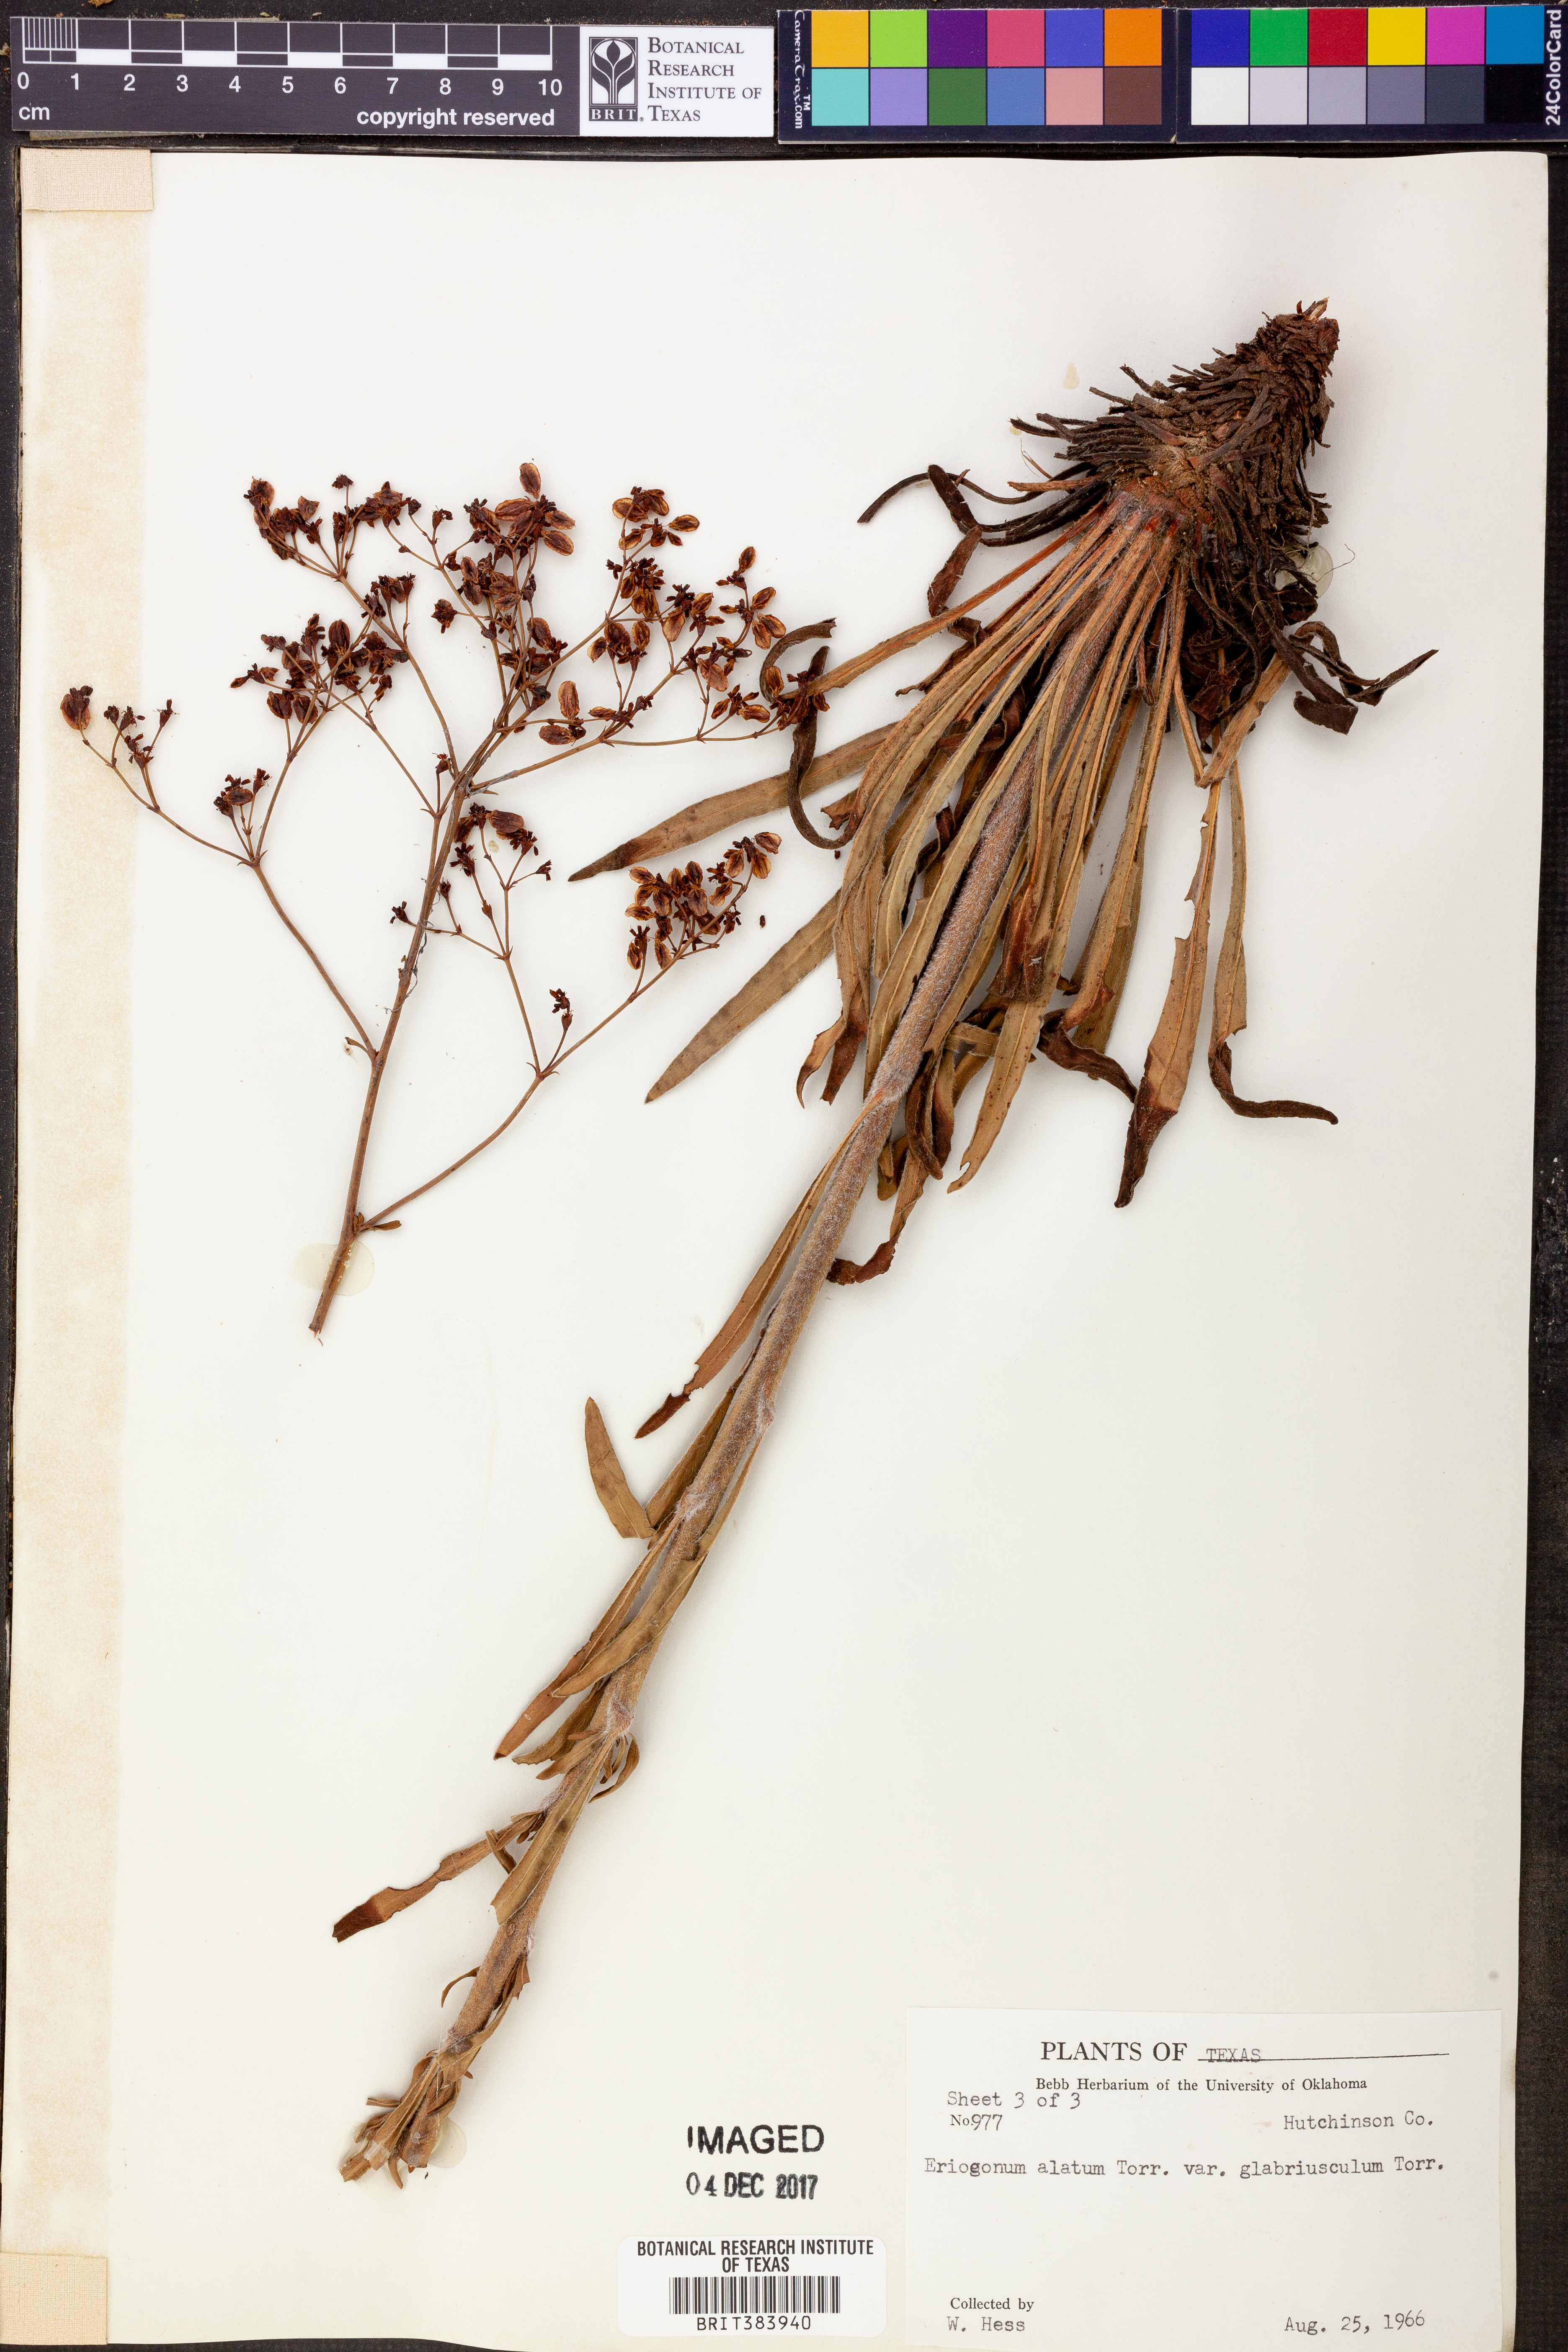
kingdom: Plantae
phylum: Tracheophyta
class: Magnoliopsida
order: Caryophyllales
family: Polygonaceae
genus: Eriogonum
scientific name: Eriogonum alatum
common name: Winged eriogonum
